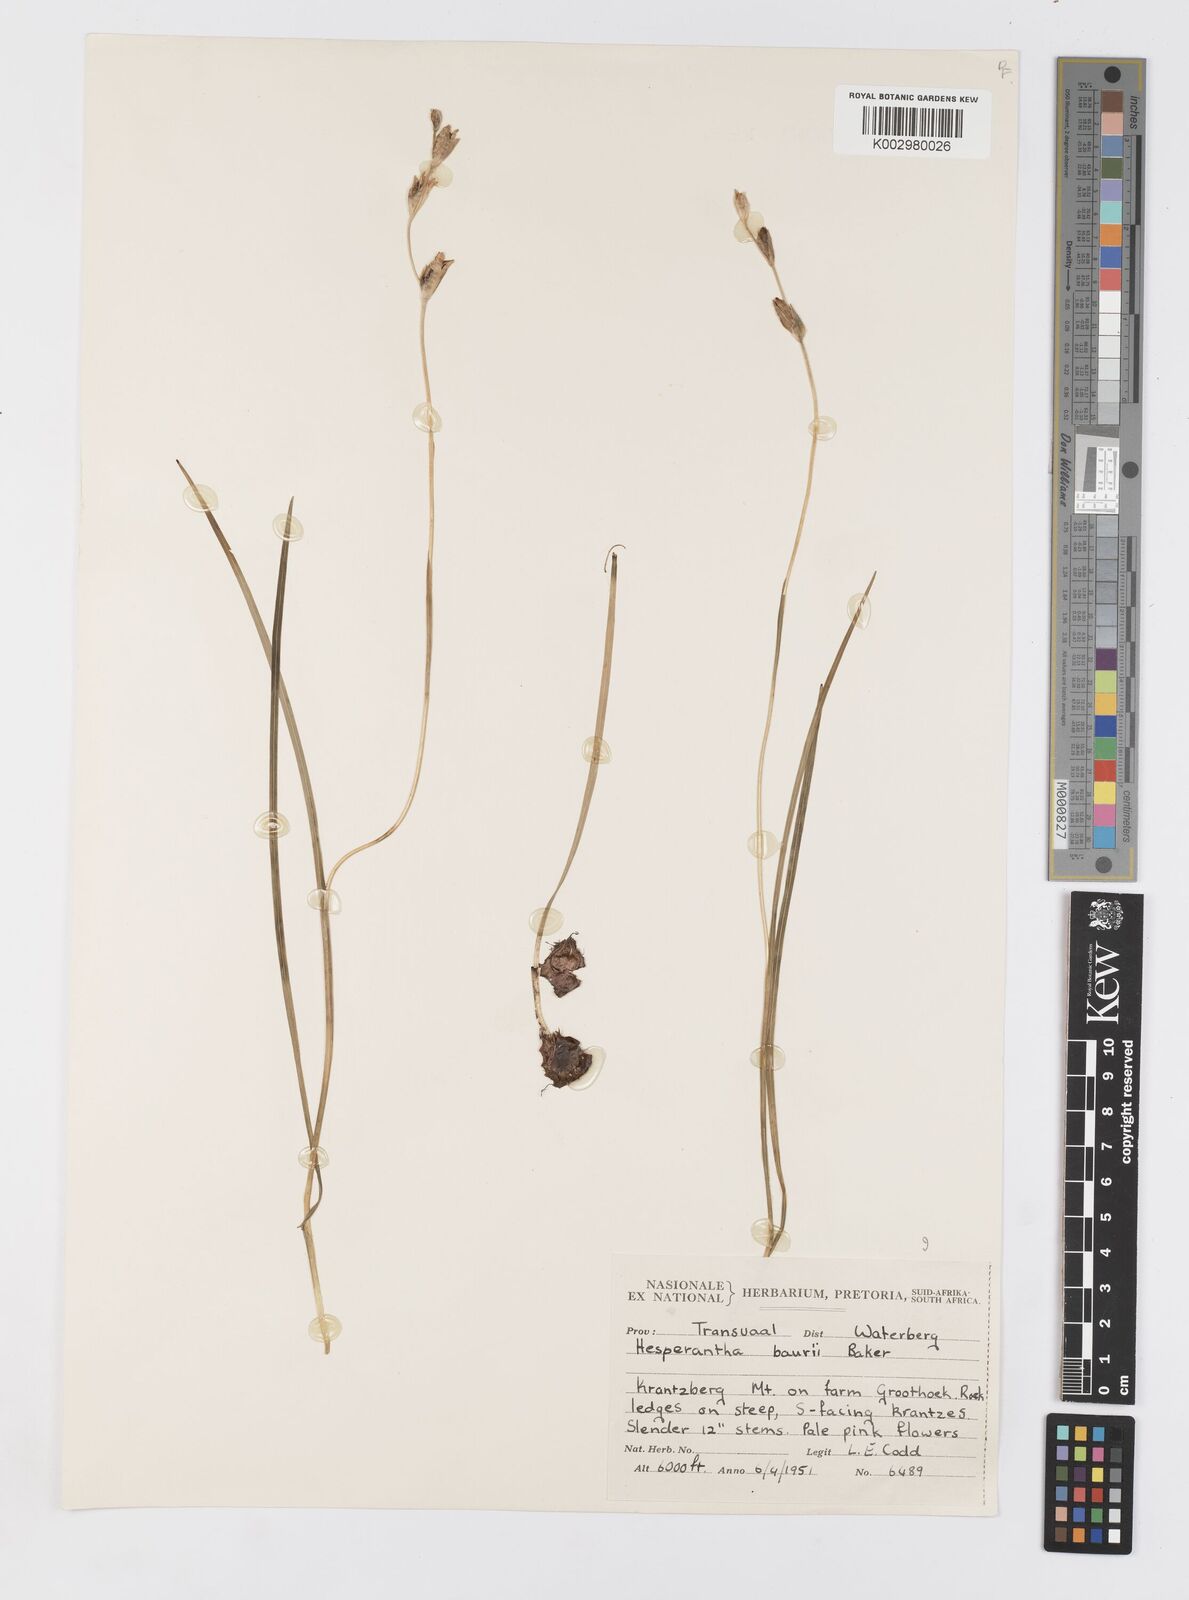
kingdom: Plantae
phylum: Tracheophyta
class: Liliopsida
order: Asparagales
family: Iridaceae
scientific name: Iridaceae
